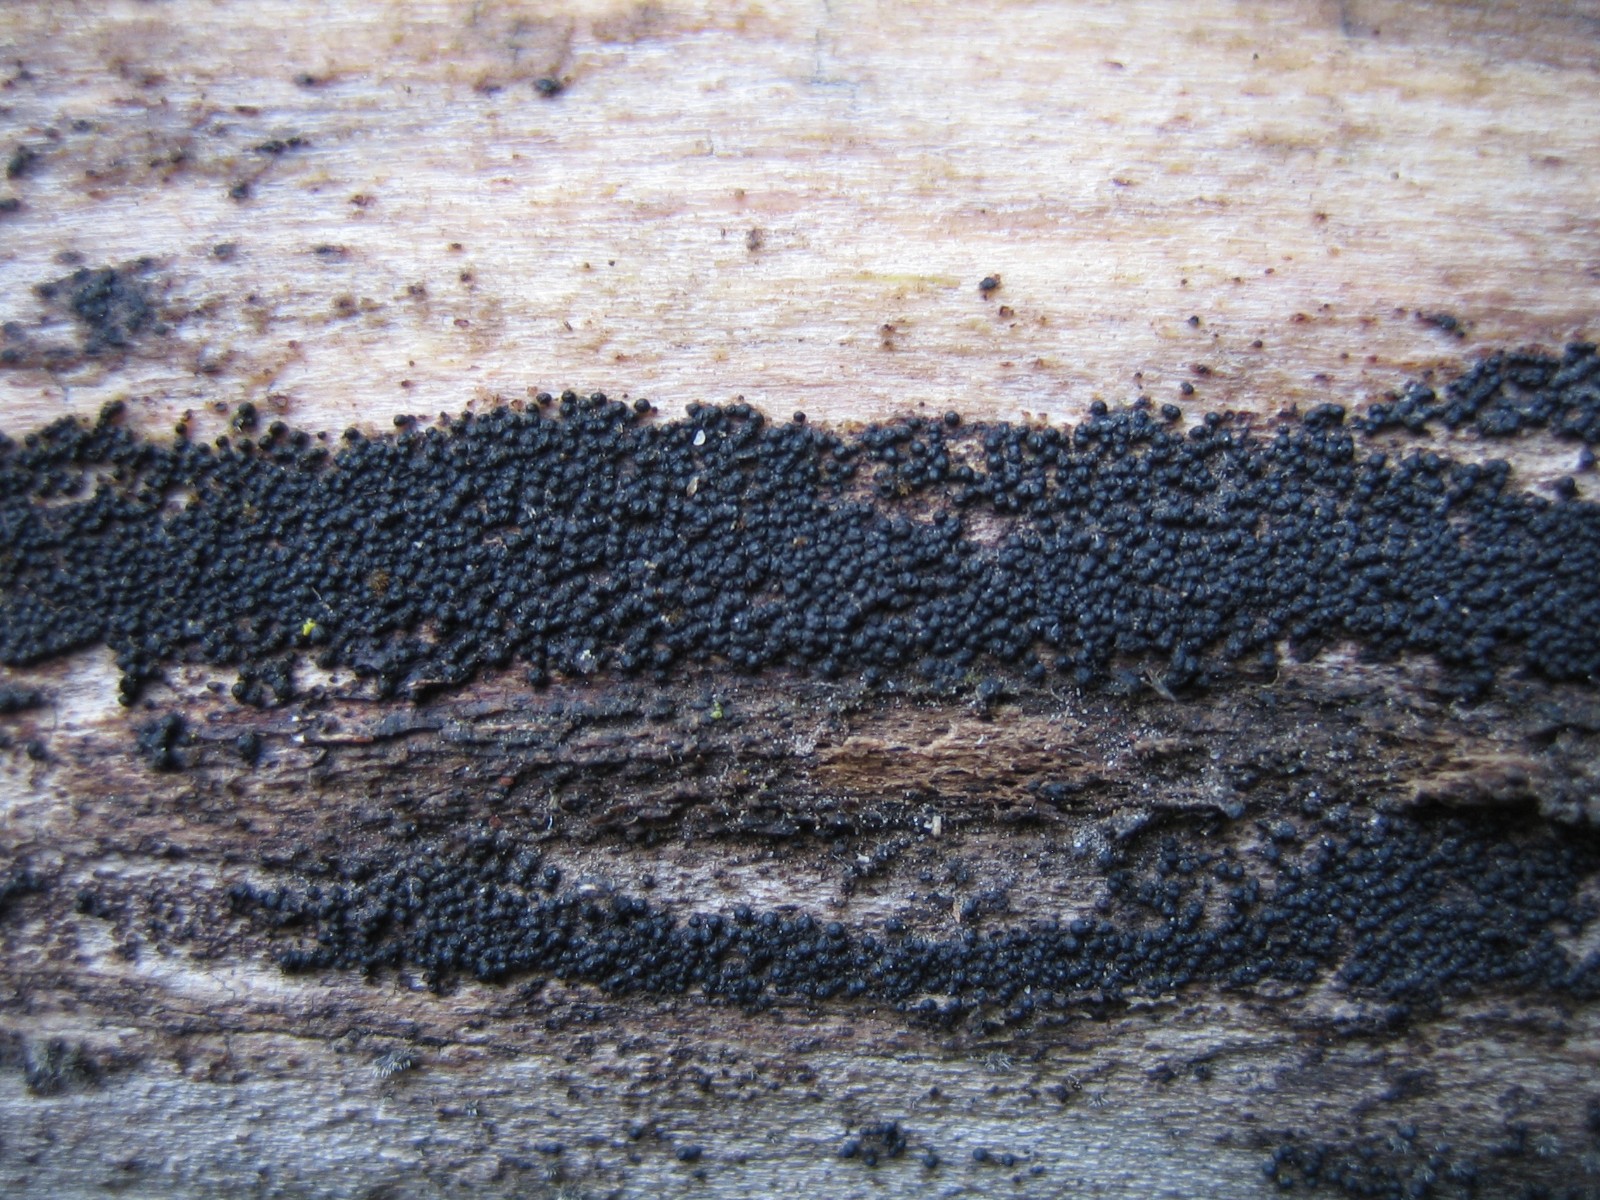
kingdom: Fungi
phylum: Ascomycota
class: Dothideomycetes
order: Pleosporales
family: Melanommataceae
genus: Melanomma
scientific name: Melanomma pulvis-pyrius
